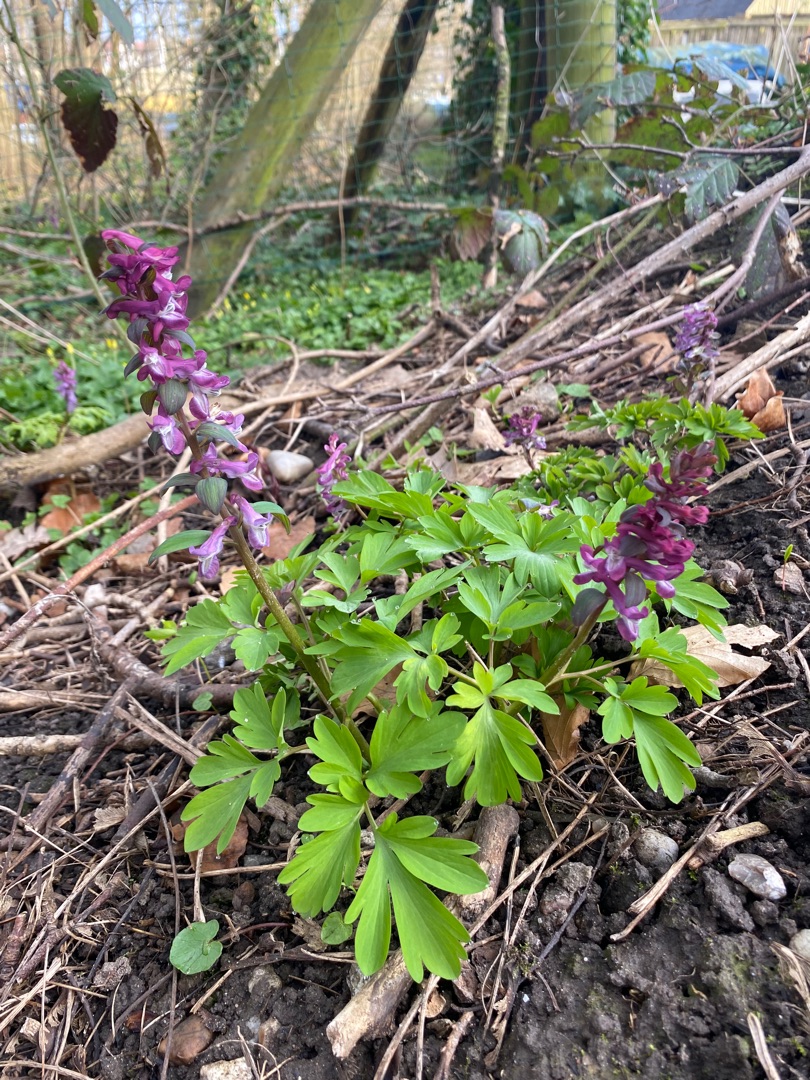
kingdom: Plantae
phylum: Tracheophyta
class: Magnoliopsida
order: Ranunculales
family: Papaveraceae
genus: Corydalis
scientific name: Corydalis cava
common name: Hulrodet lærkespore
